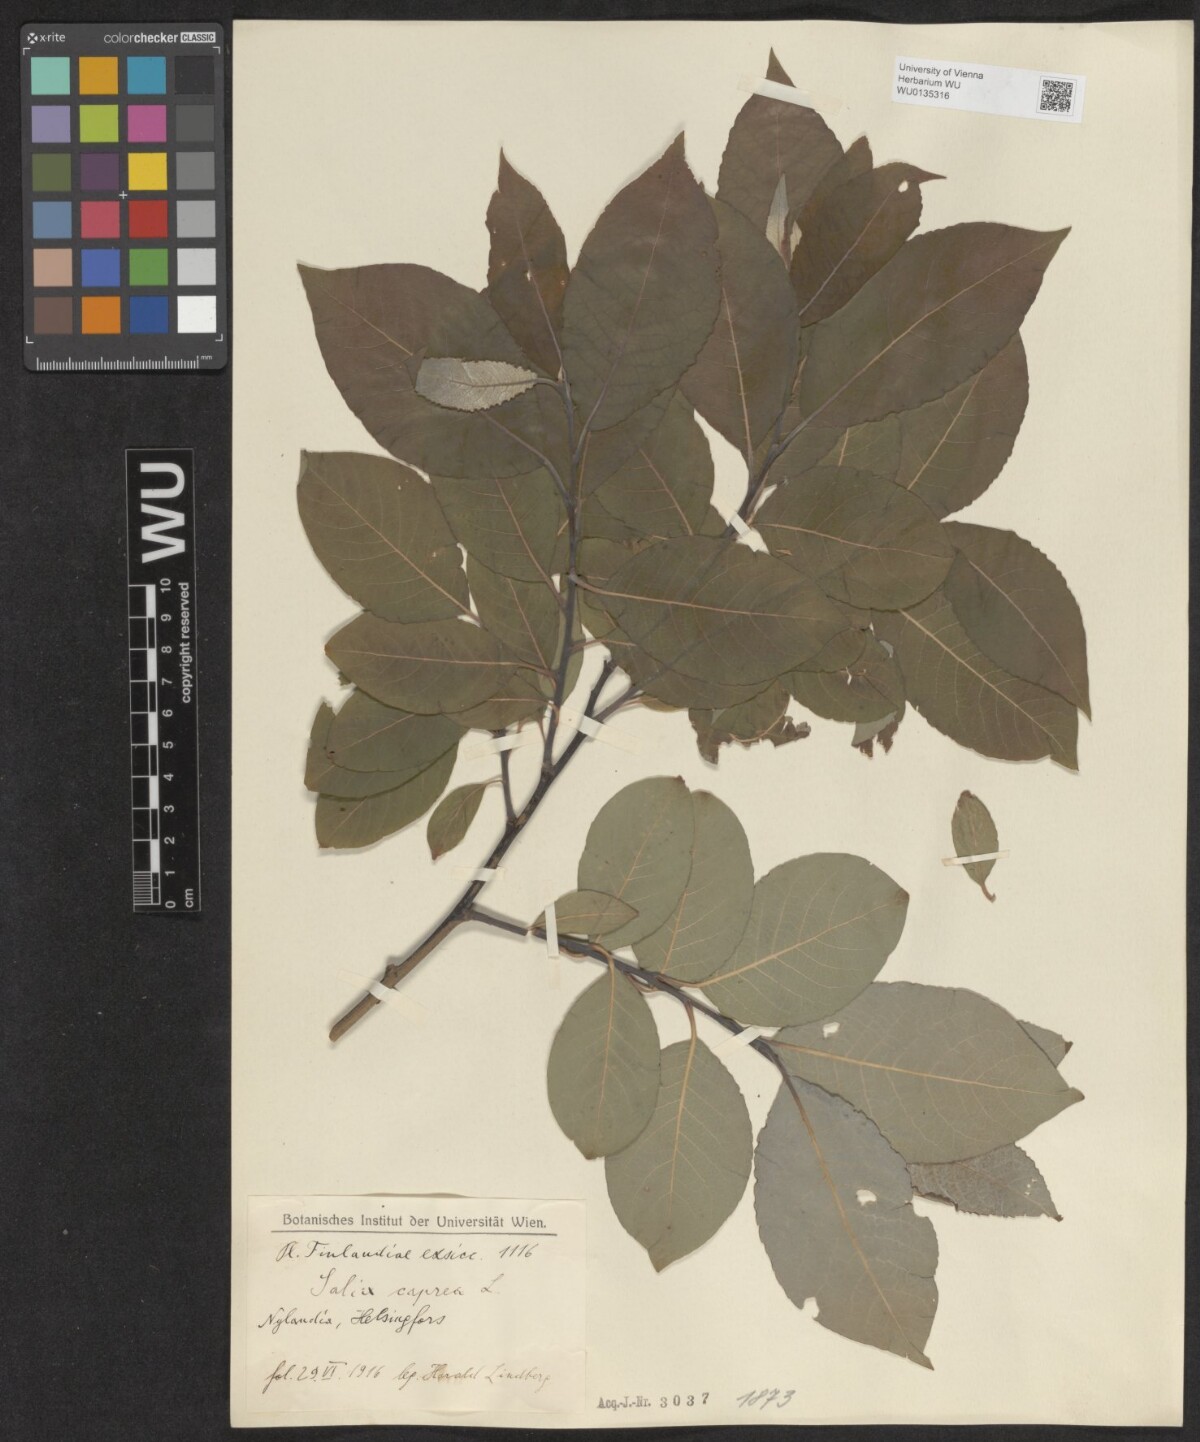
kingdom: Plantae
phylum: Tracheophyta
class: Magnoliopsida
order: Malpighiales
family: Salicaceae
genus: Salix
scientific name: Salix caprea
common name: Goat willow
